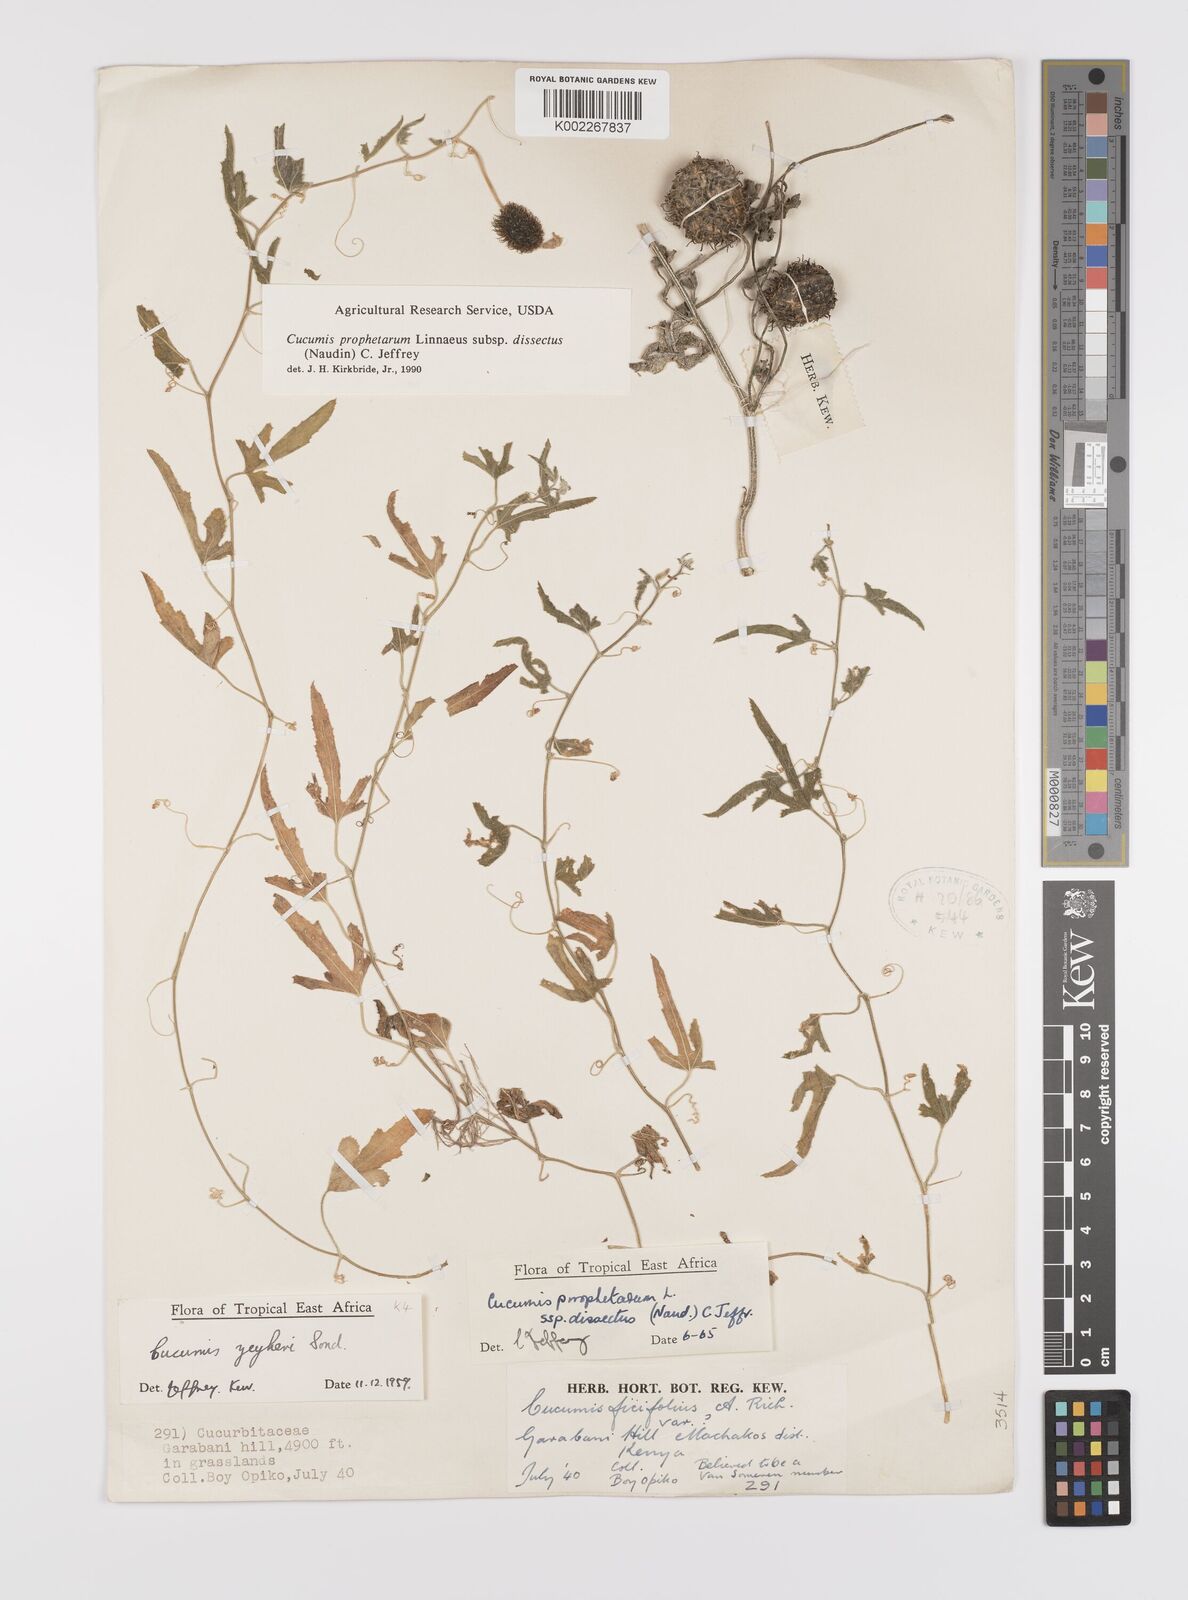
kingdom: Plantae
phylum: Tracheophyta
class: Magnoliopsida
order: Cucurbitales
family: Cucurbitaceae
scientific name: Cucurbitaceae
